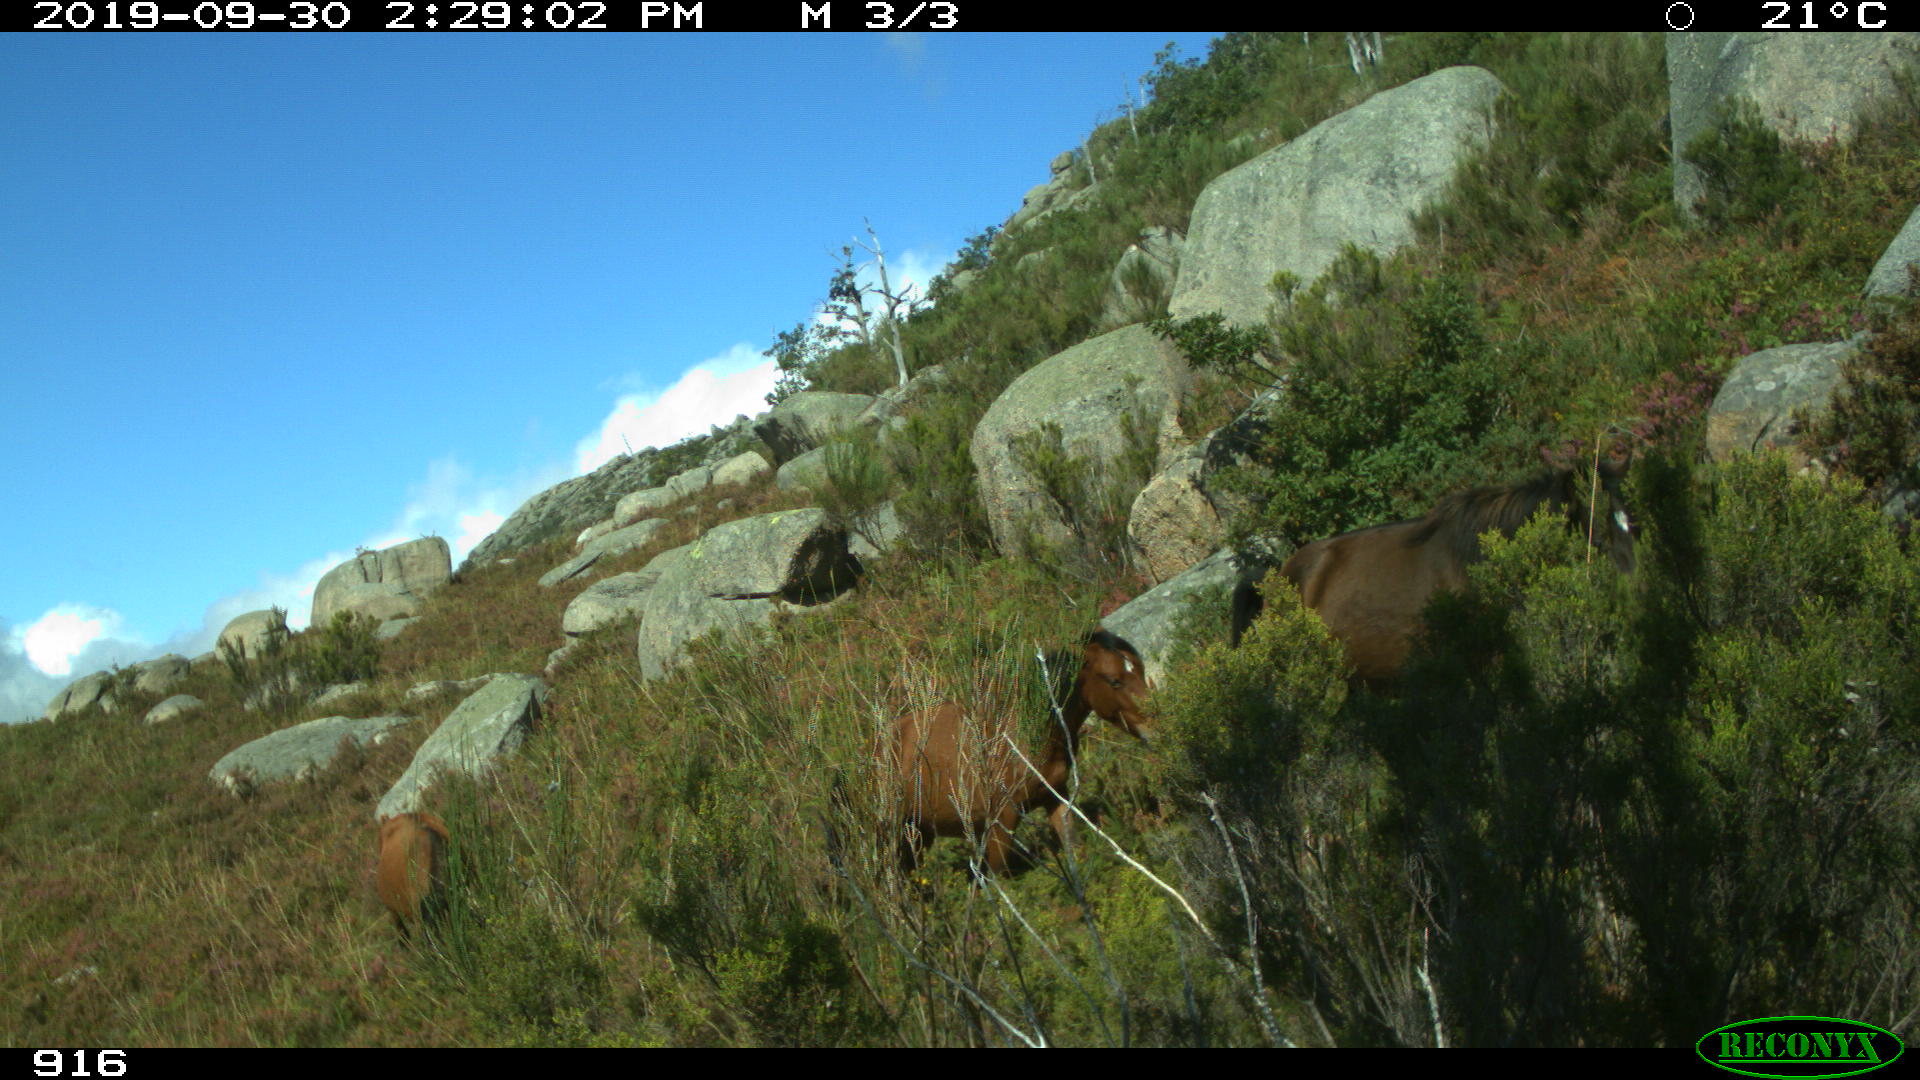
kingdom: Animalia
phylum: Chordata
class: Mammalia
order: Perissodactyla
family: Equidae
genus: Equus
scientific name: Equus caballus
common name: Horse
